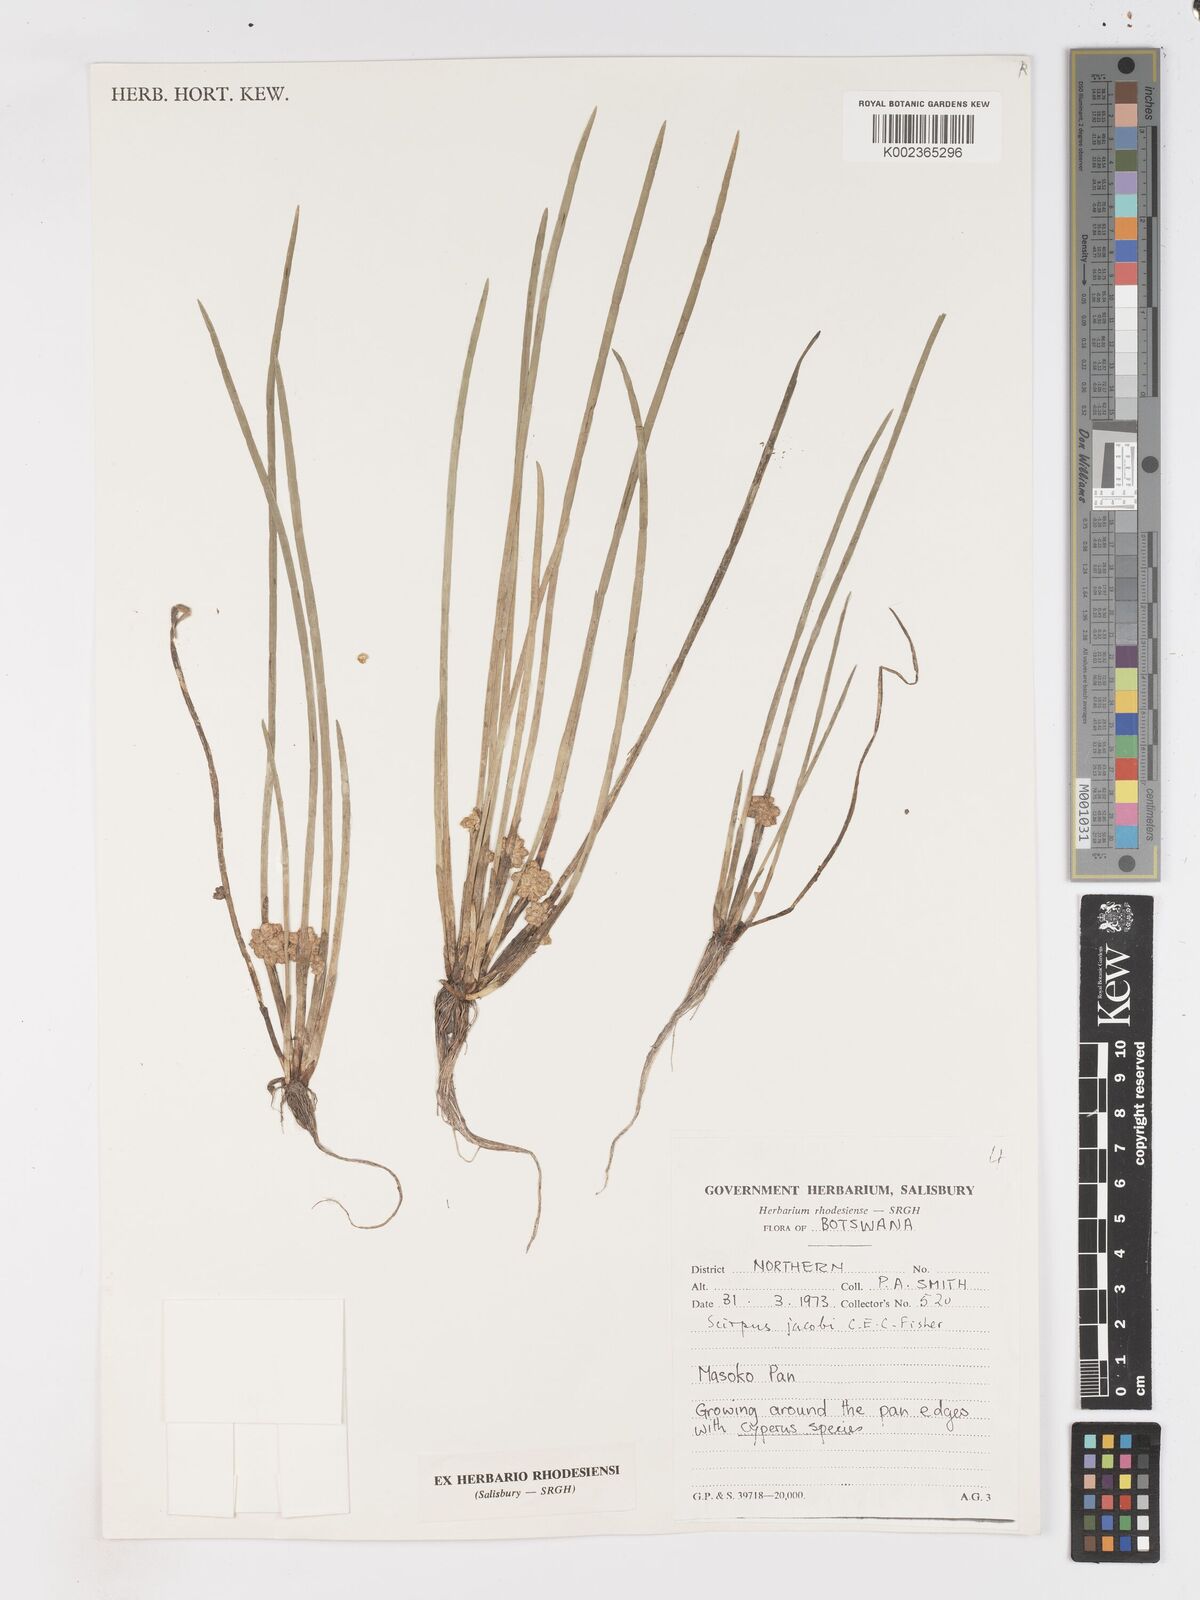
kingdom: Plantae
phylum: Tracheophyta
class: Liliopsida
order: Poales
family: Cyperaceae
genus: Schoenoplectiella
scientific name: Schoenoplectiella senegalensis
